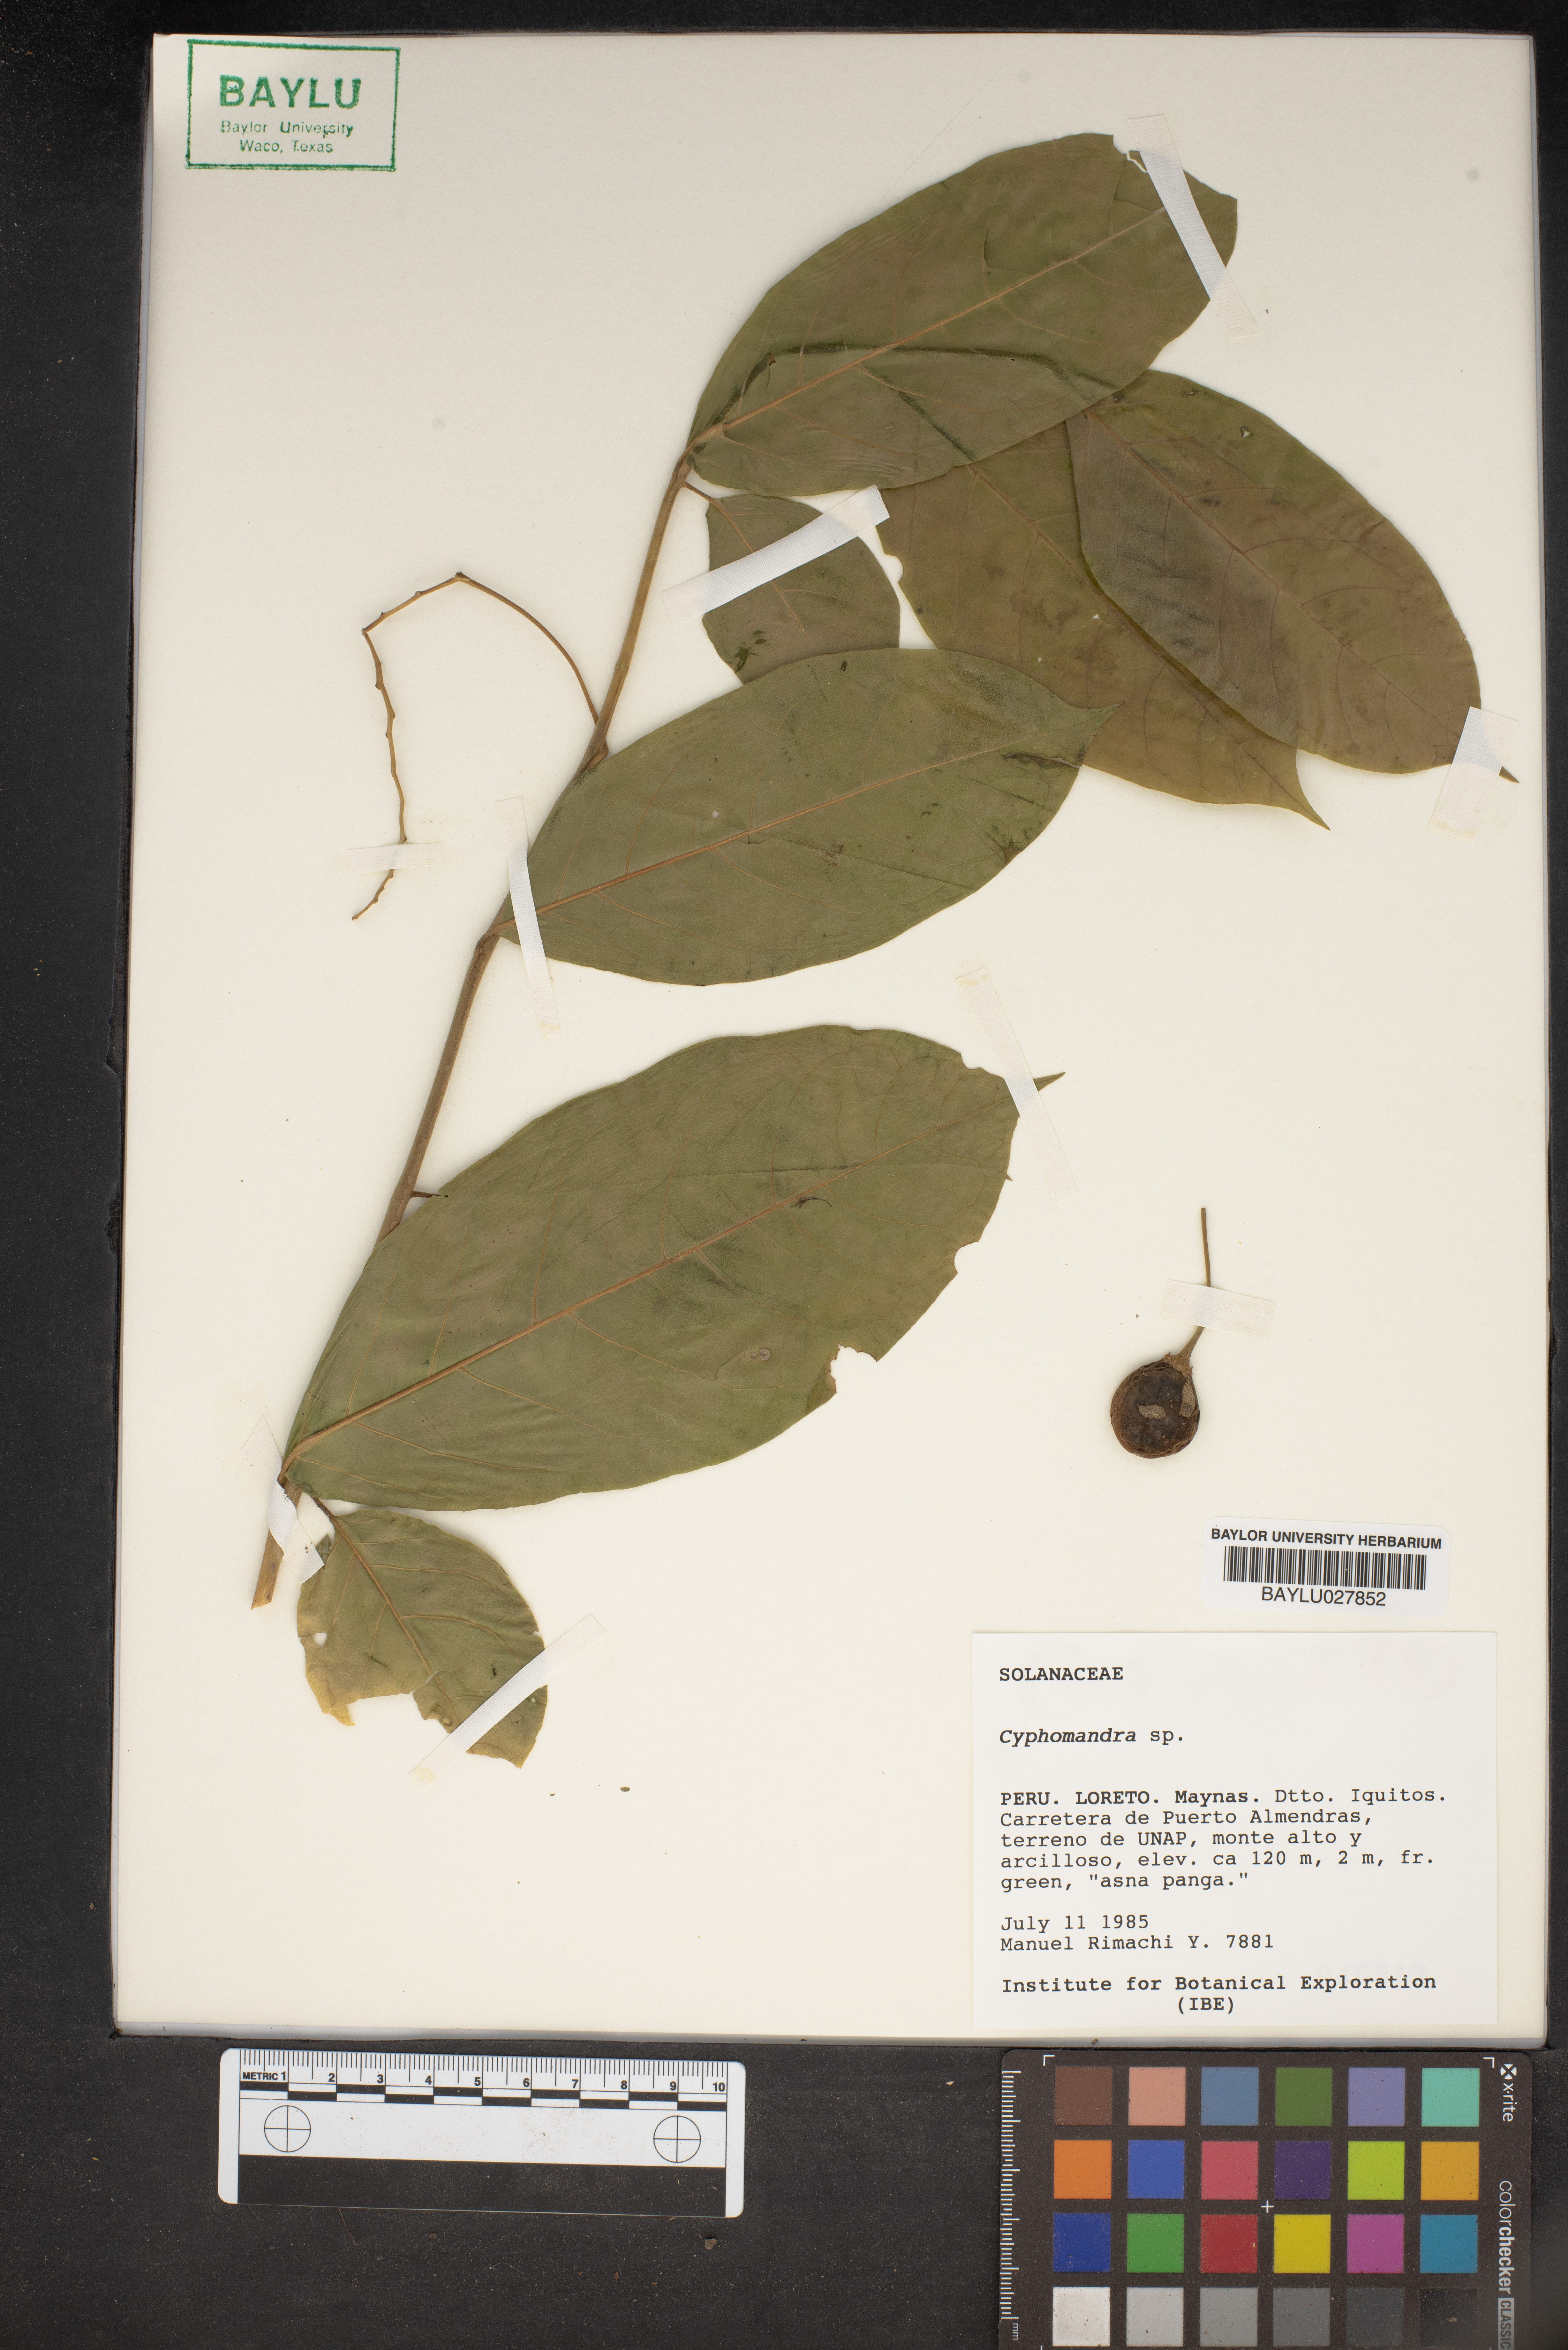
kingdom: Plantae
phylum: Tracheophyta
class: Magnoliopsida
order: Solanales
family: Solanaceae
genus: Solanum
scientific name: Solanum
